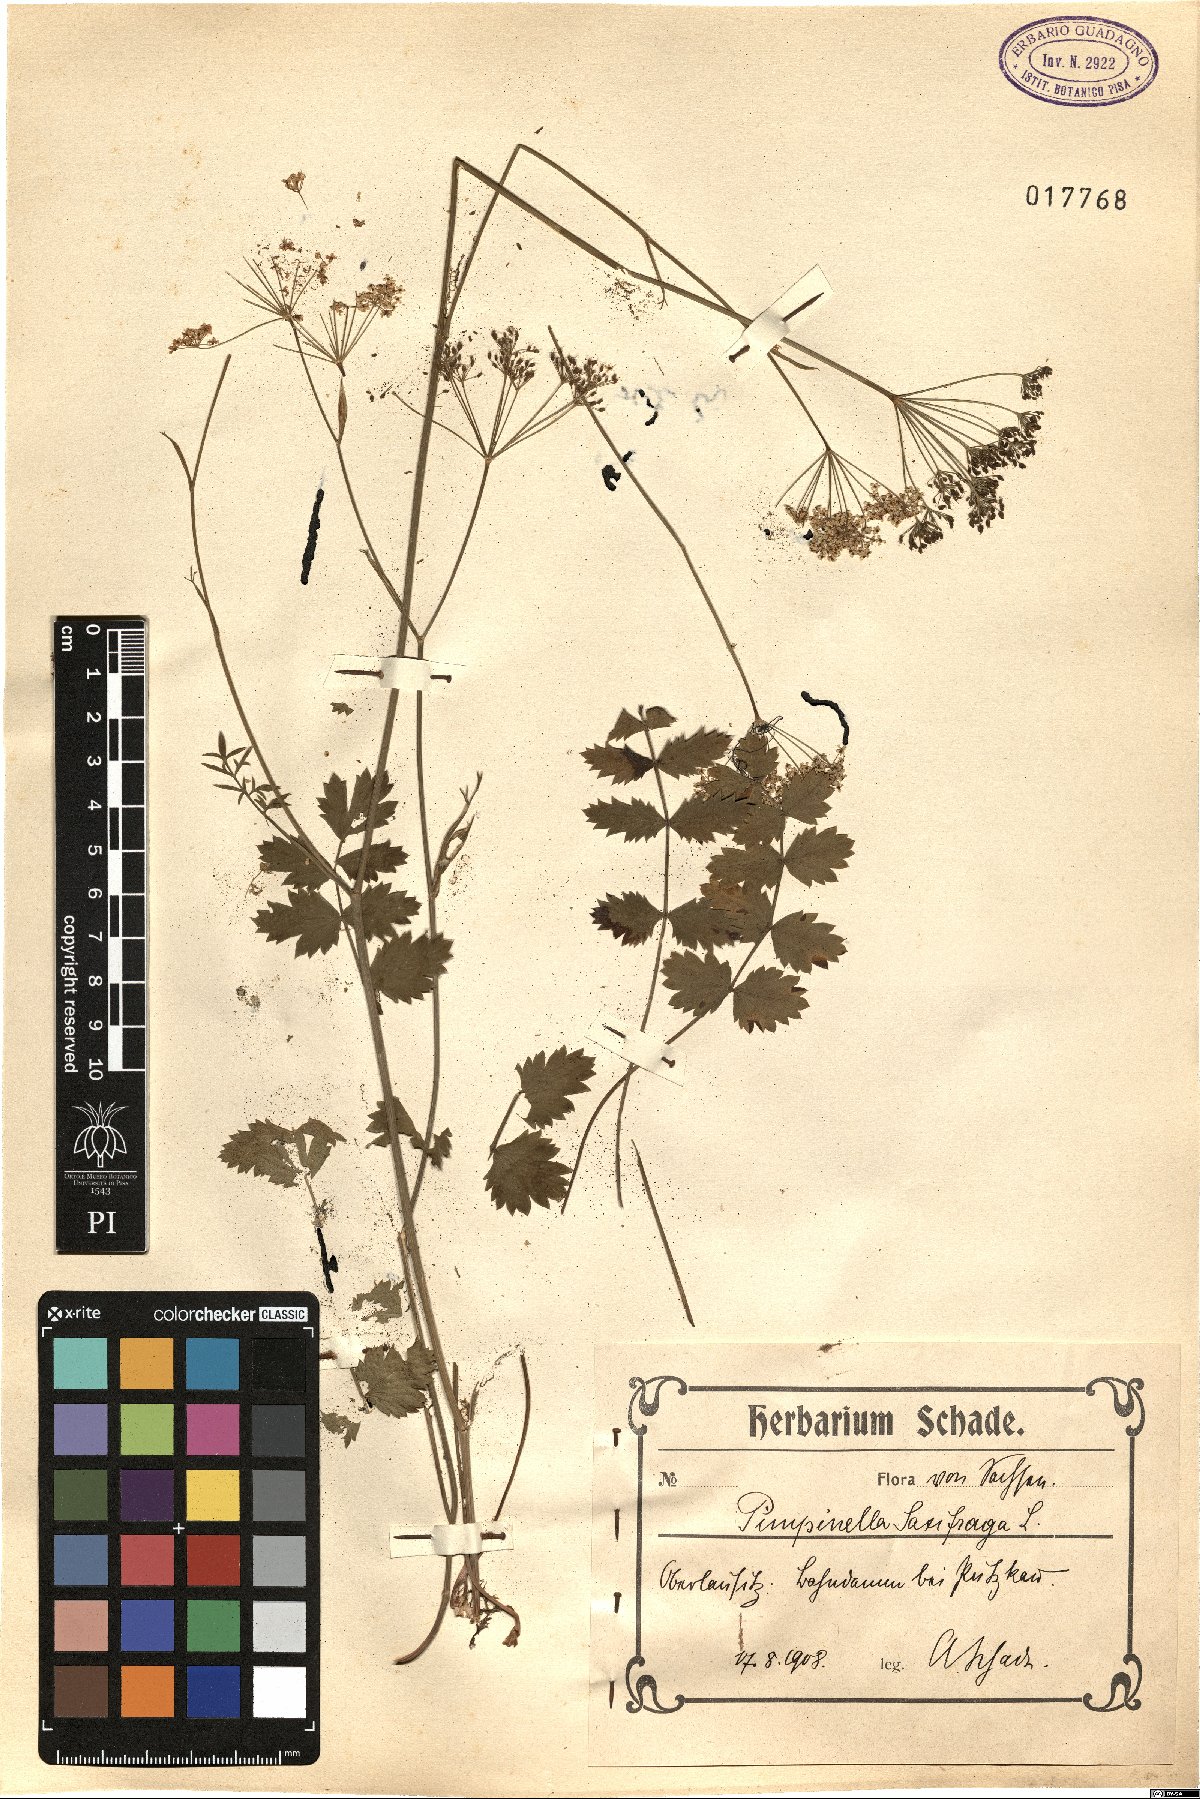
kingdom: Plantae
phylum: Tracheophyta
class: Magnoliopsida
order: Apiales
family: Apiaceae
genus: Pimpinella
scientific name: Pimpinella saxifraga
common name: Burnet-saxifrage
